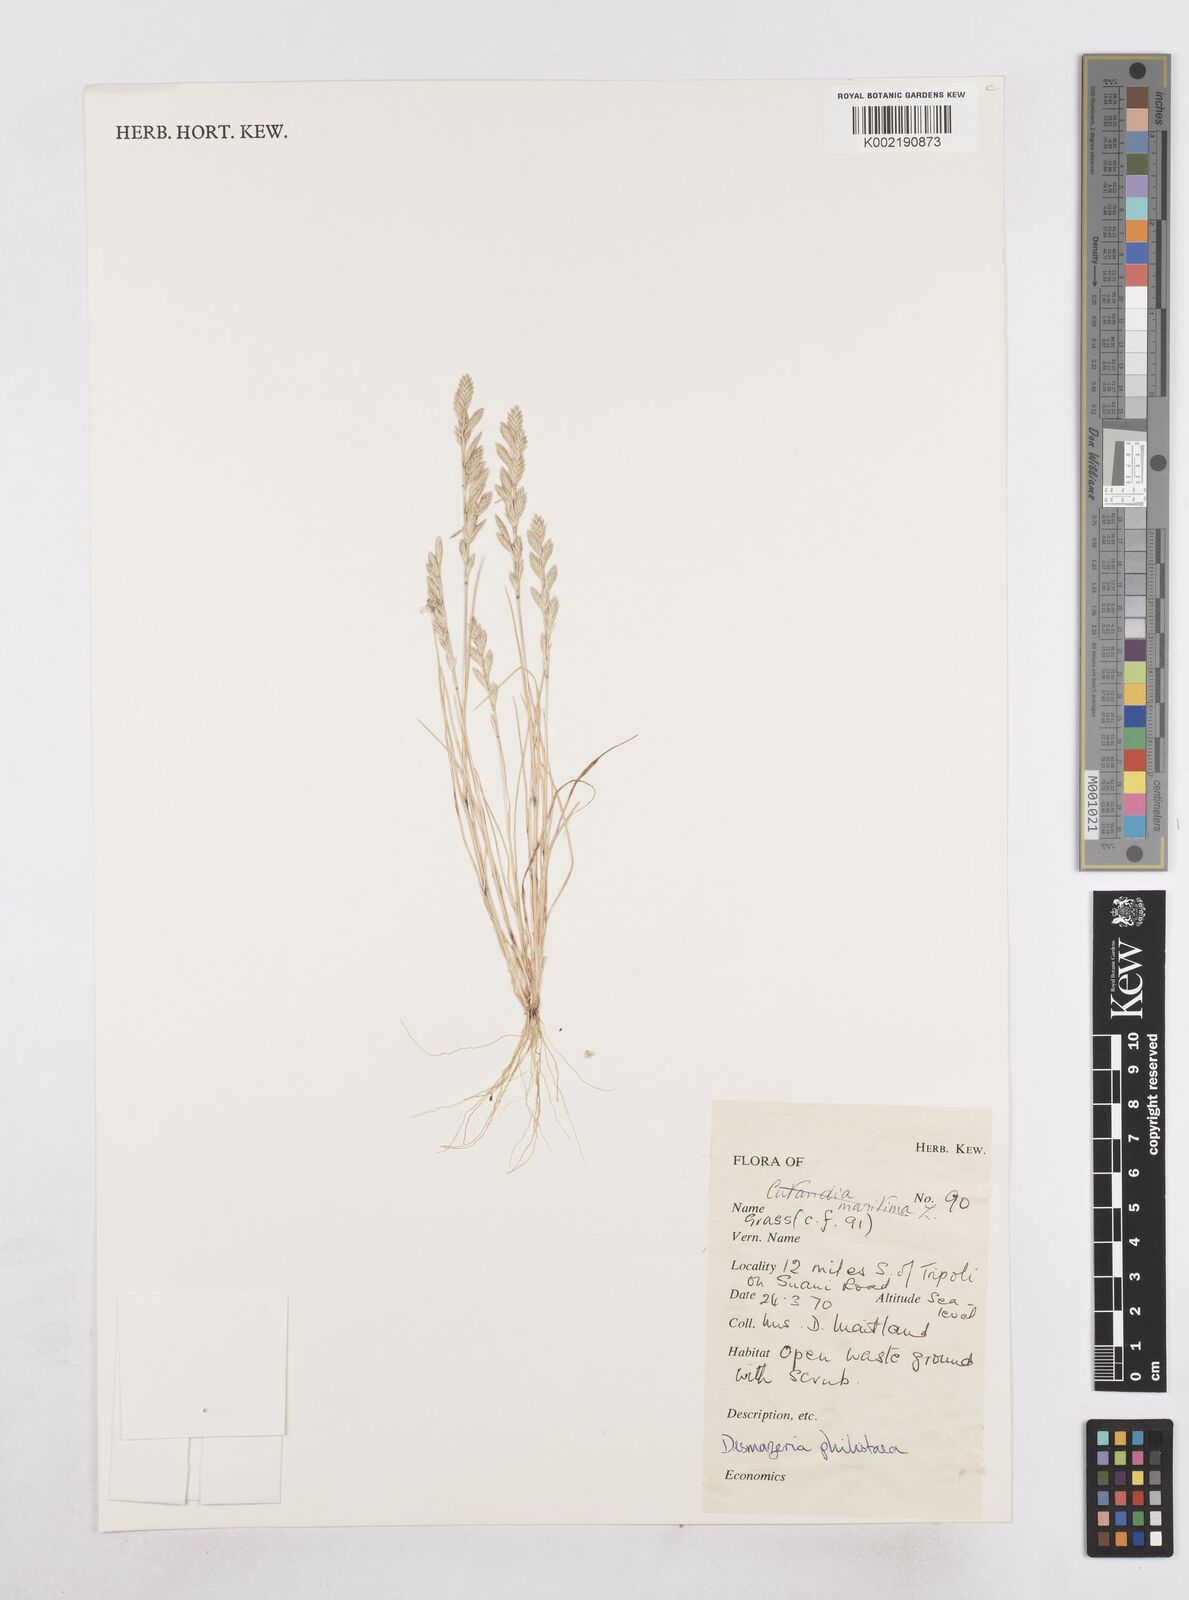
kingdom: Plantae
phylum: Tracheophyta
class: Liliopsida
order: Poales
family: Poaceae
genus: Desmazeria
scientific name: Desmazeria philistaea
